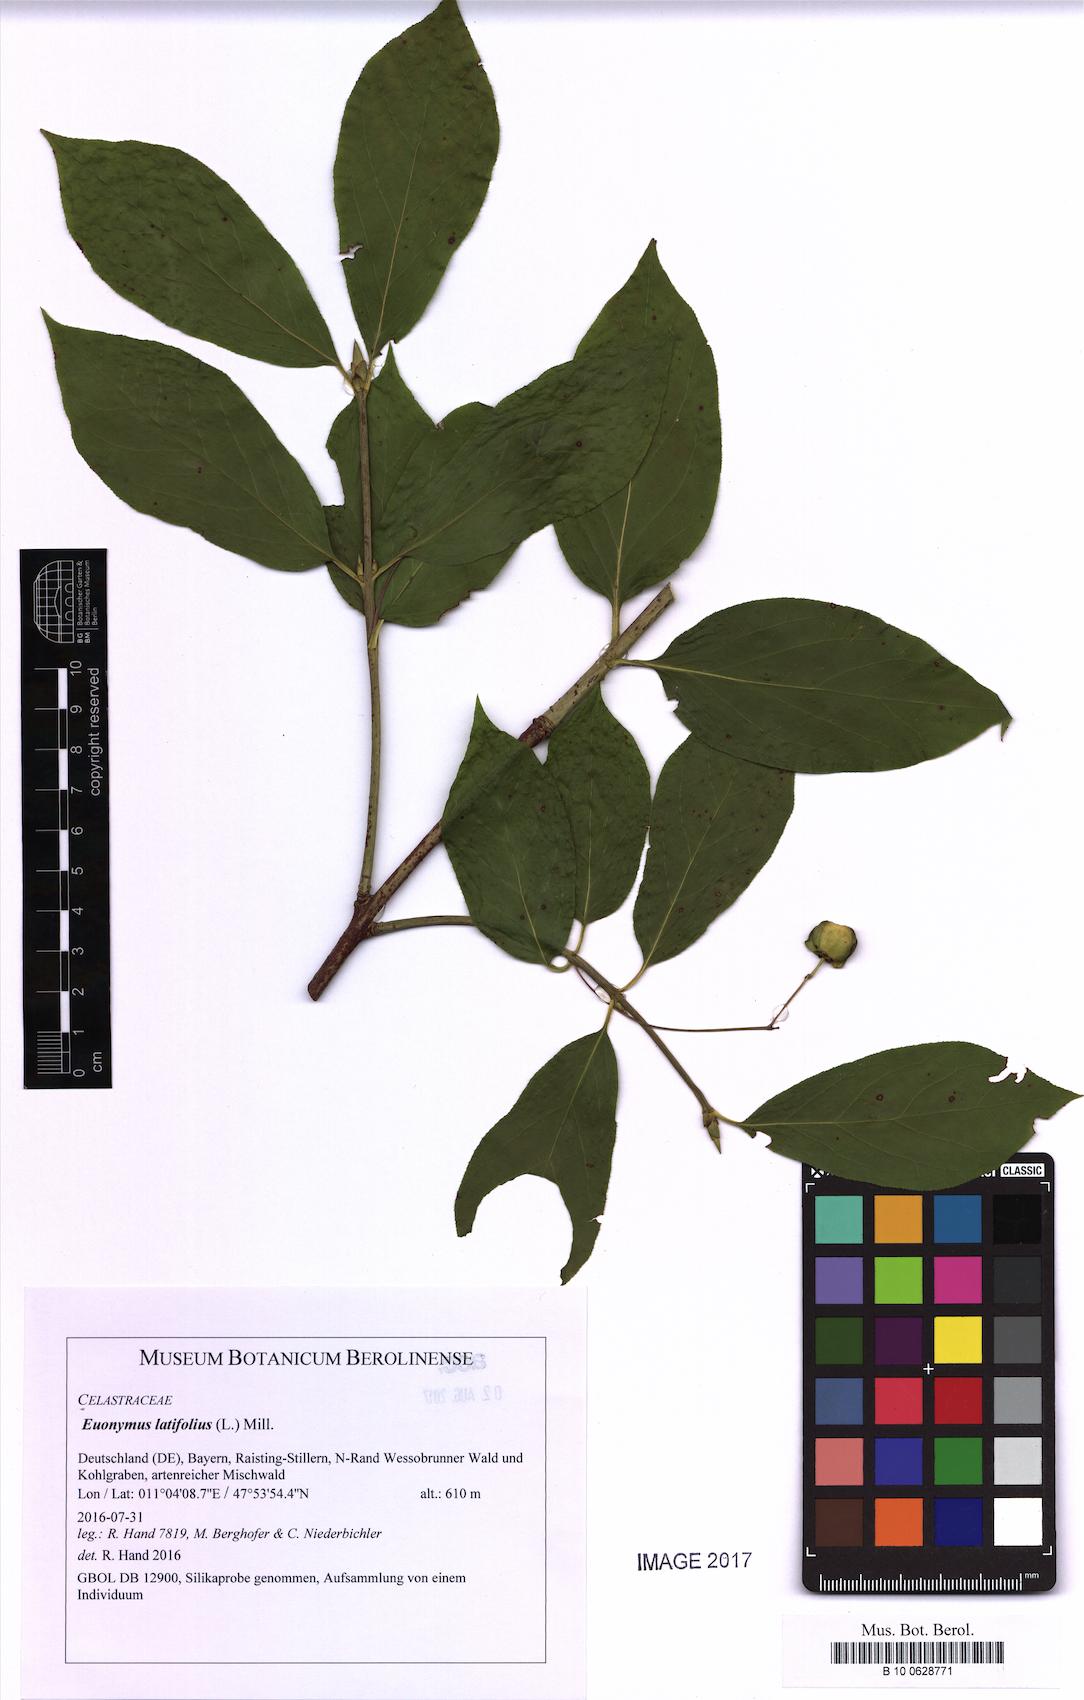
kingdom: Plantae
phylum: Tracheophyta
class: Magnoliopsida
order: Celastrales
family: Celastraceae
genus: Euonymus
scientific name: Euonymus latifolius
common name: Large-leaved spindle
